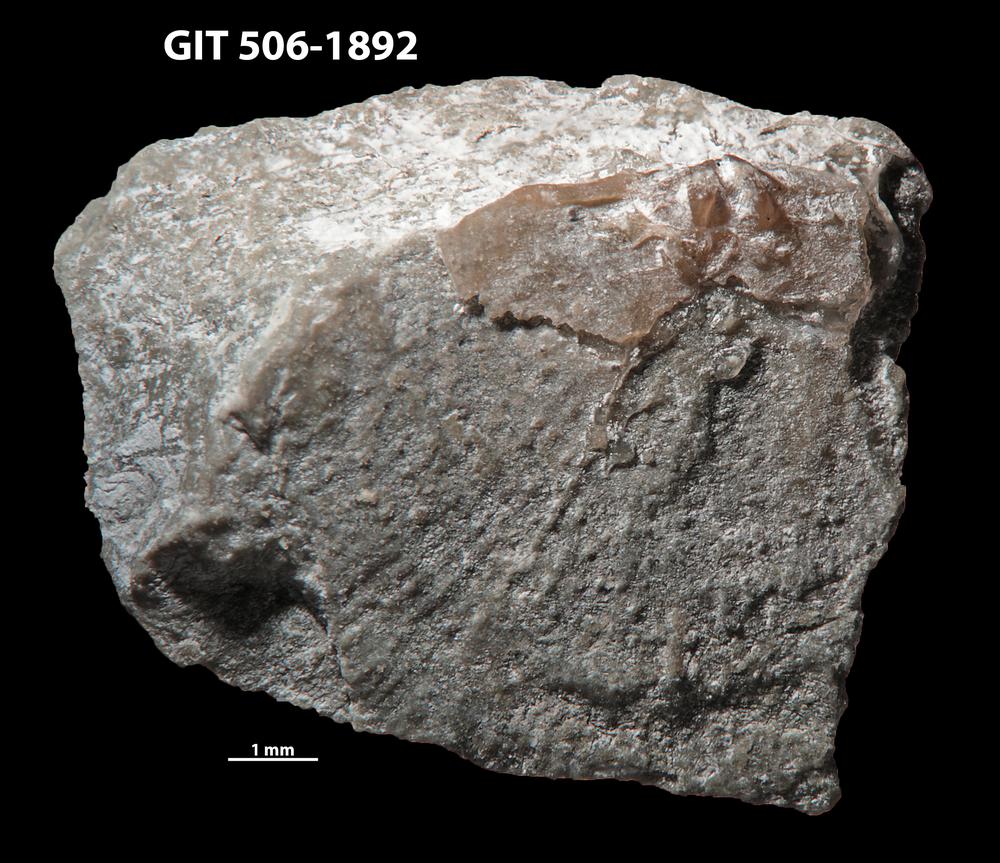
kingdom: Animalia
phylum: Brachiopoda
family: Strophomenidae
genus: Leptaena
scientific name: Leptaena haverfordensis
